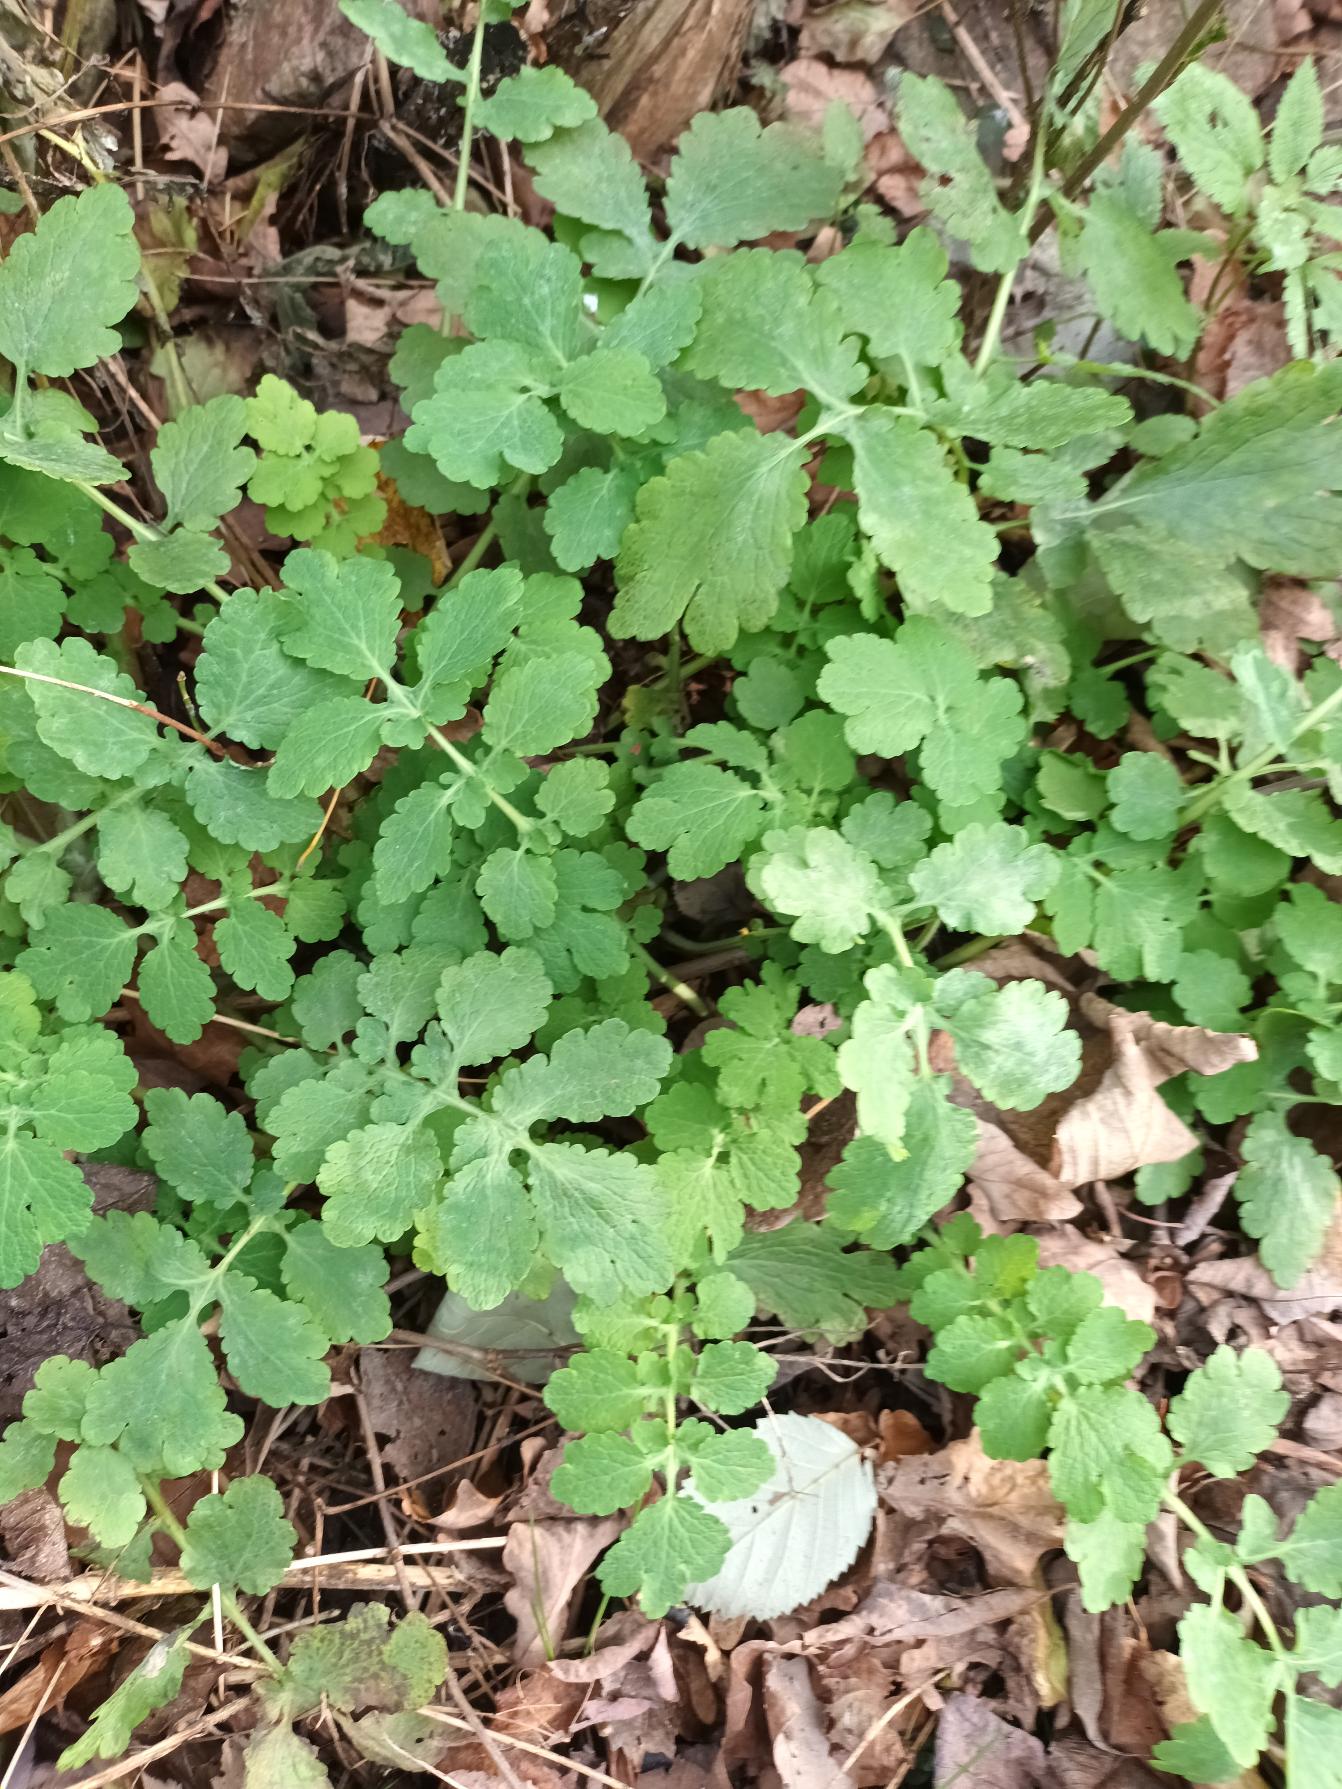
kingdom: Plantae
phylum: Tracheophyta
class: Magnoliopsida
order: Ranunculales
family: Papaveraceae
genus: Chelidonium
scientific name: Chelidonium majus
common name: Svaleurt
